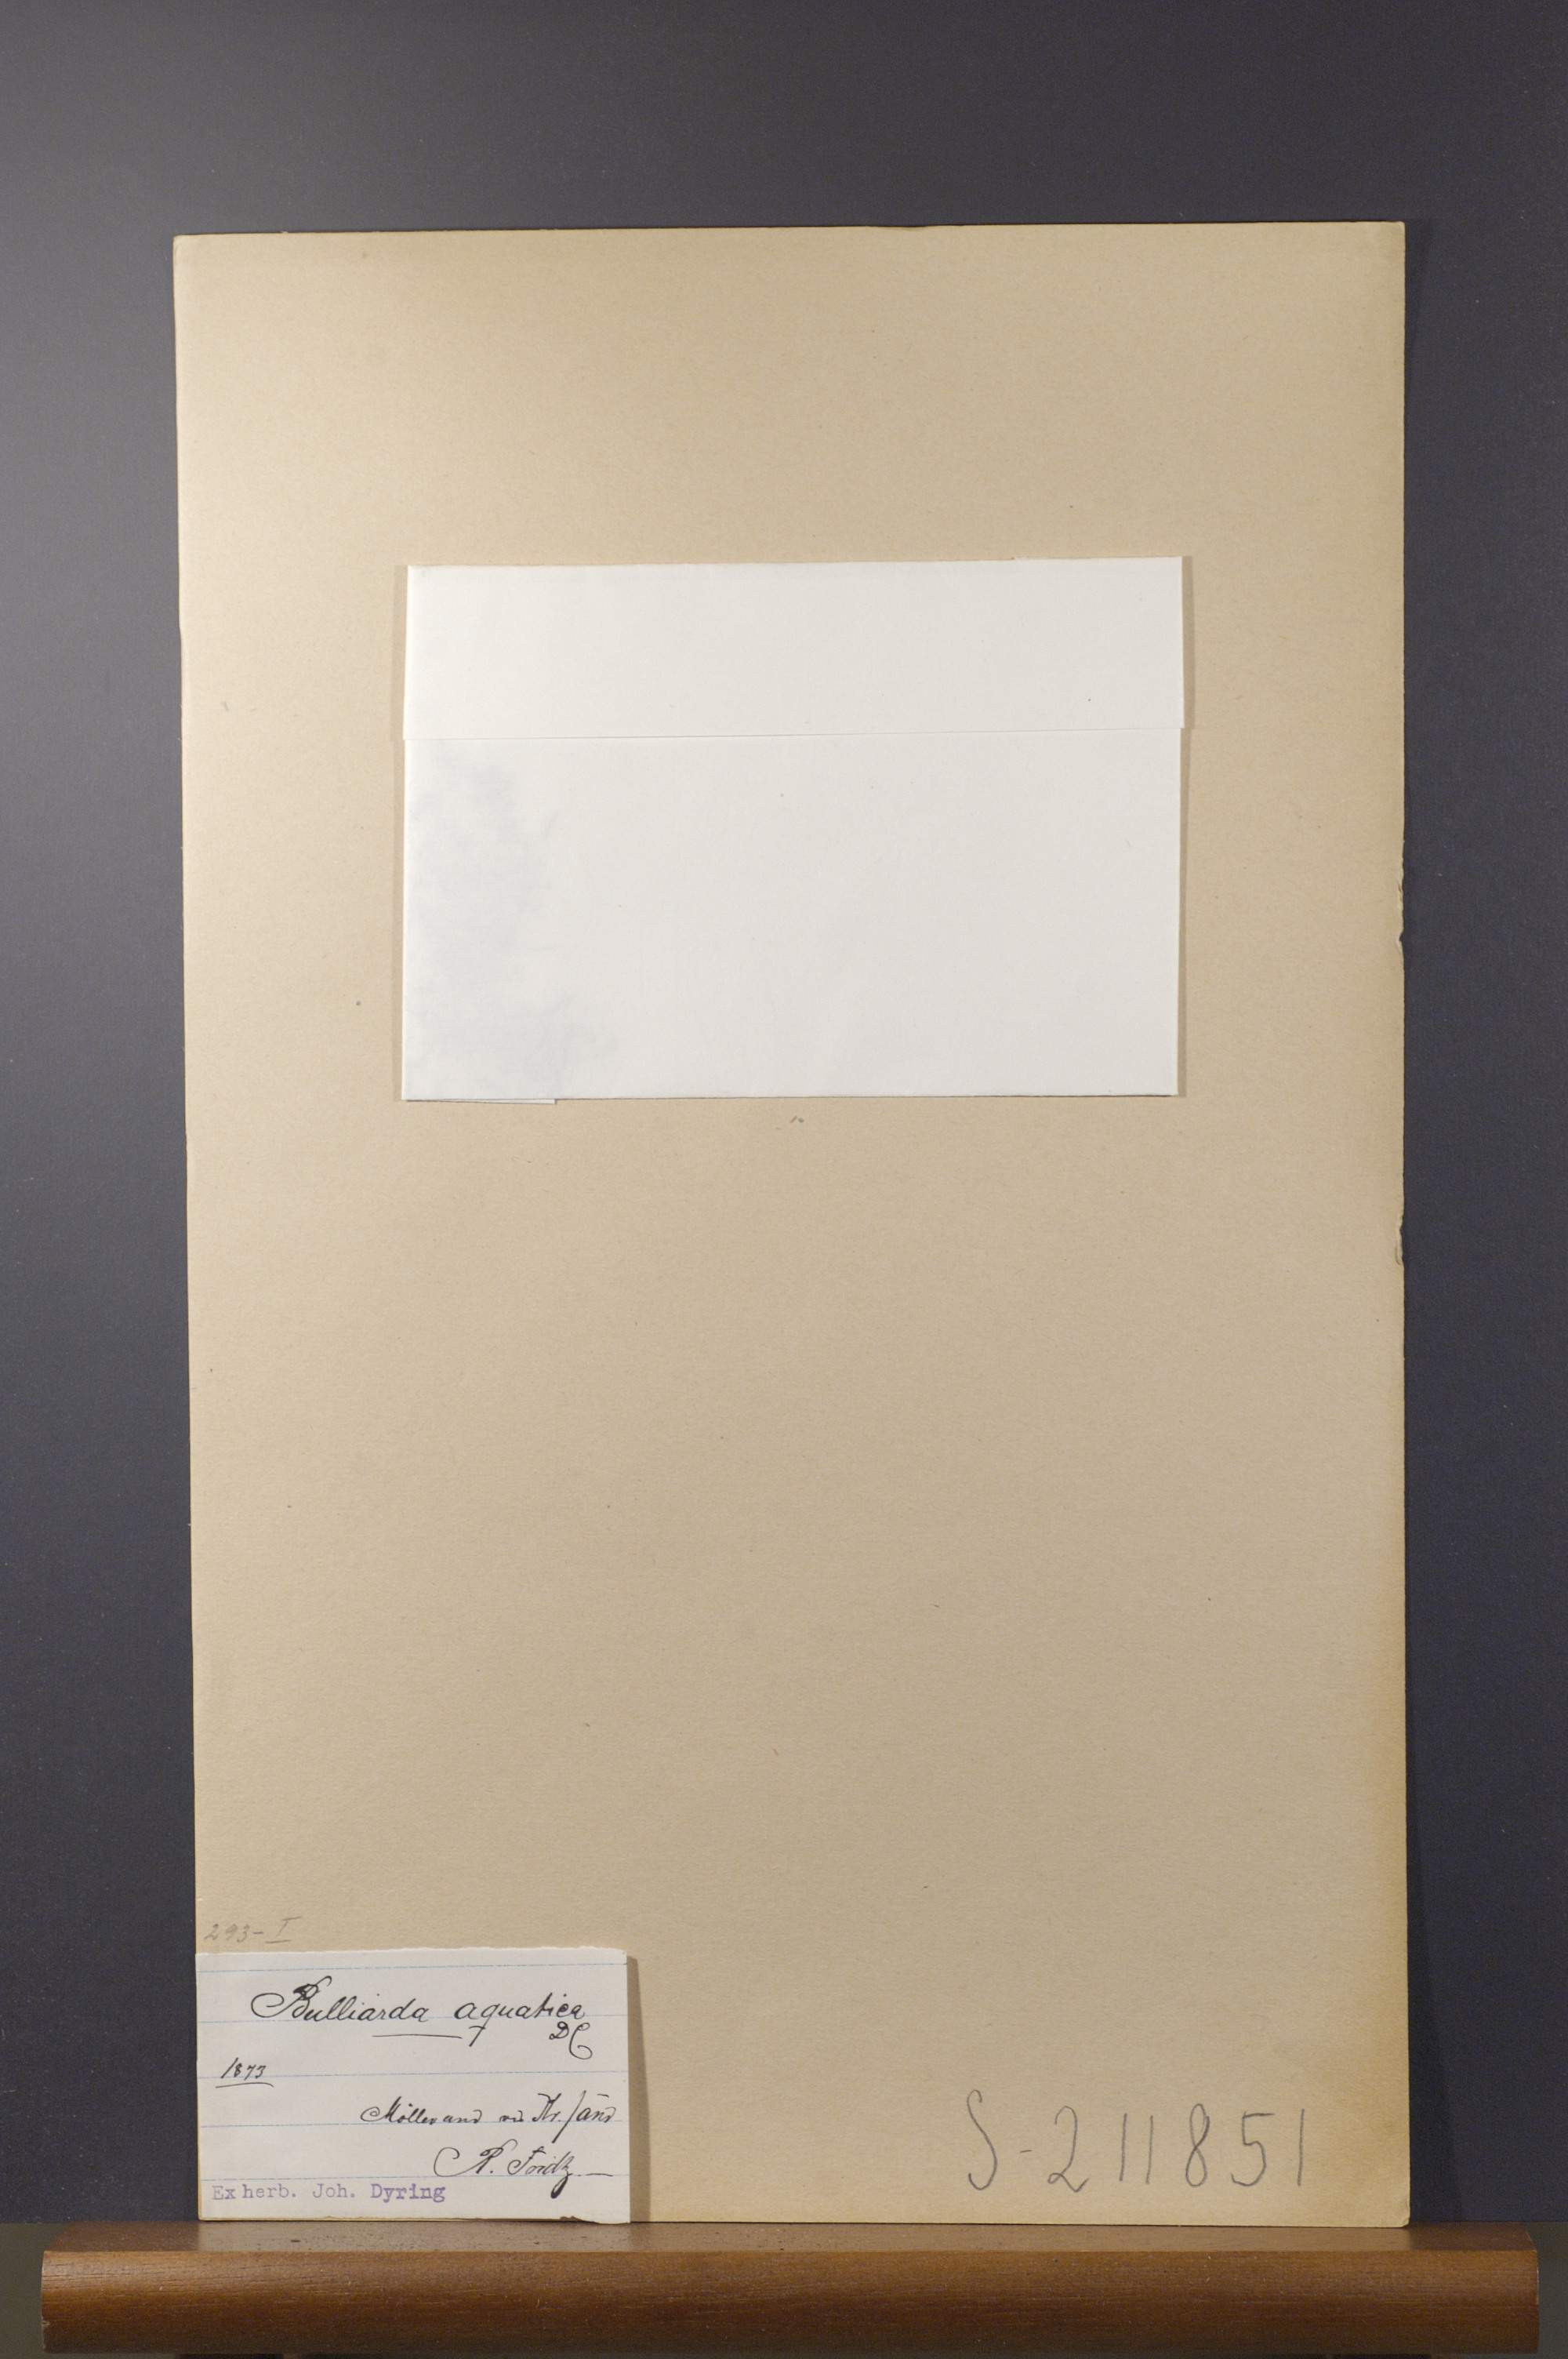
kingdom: Plantae
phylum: Tracheophyta
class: Magnoliopsida
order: Saxifragales
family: Crassulaceae
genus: Crassula
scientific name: Crassula aquatica
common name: Pigmyweed
